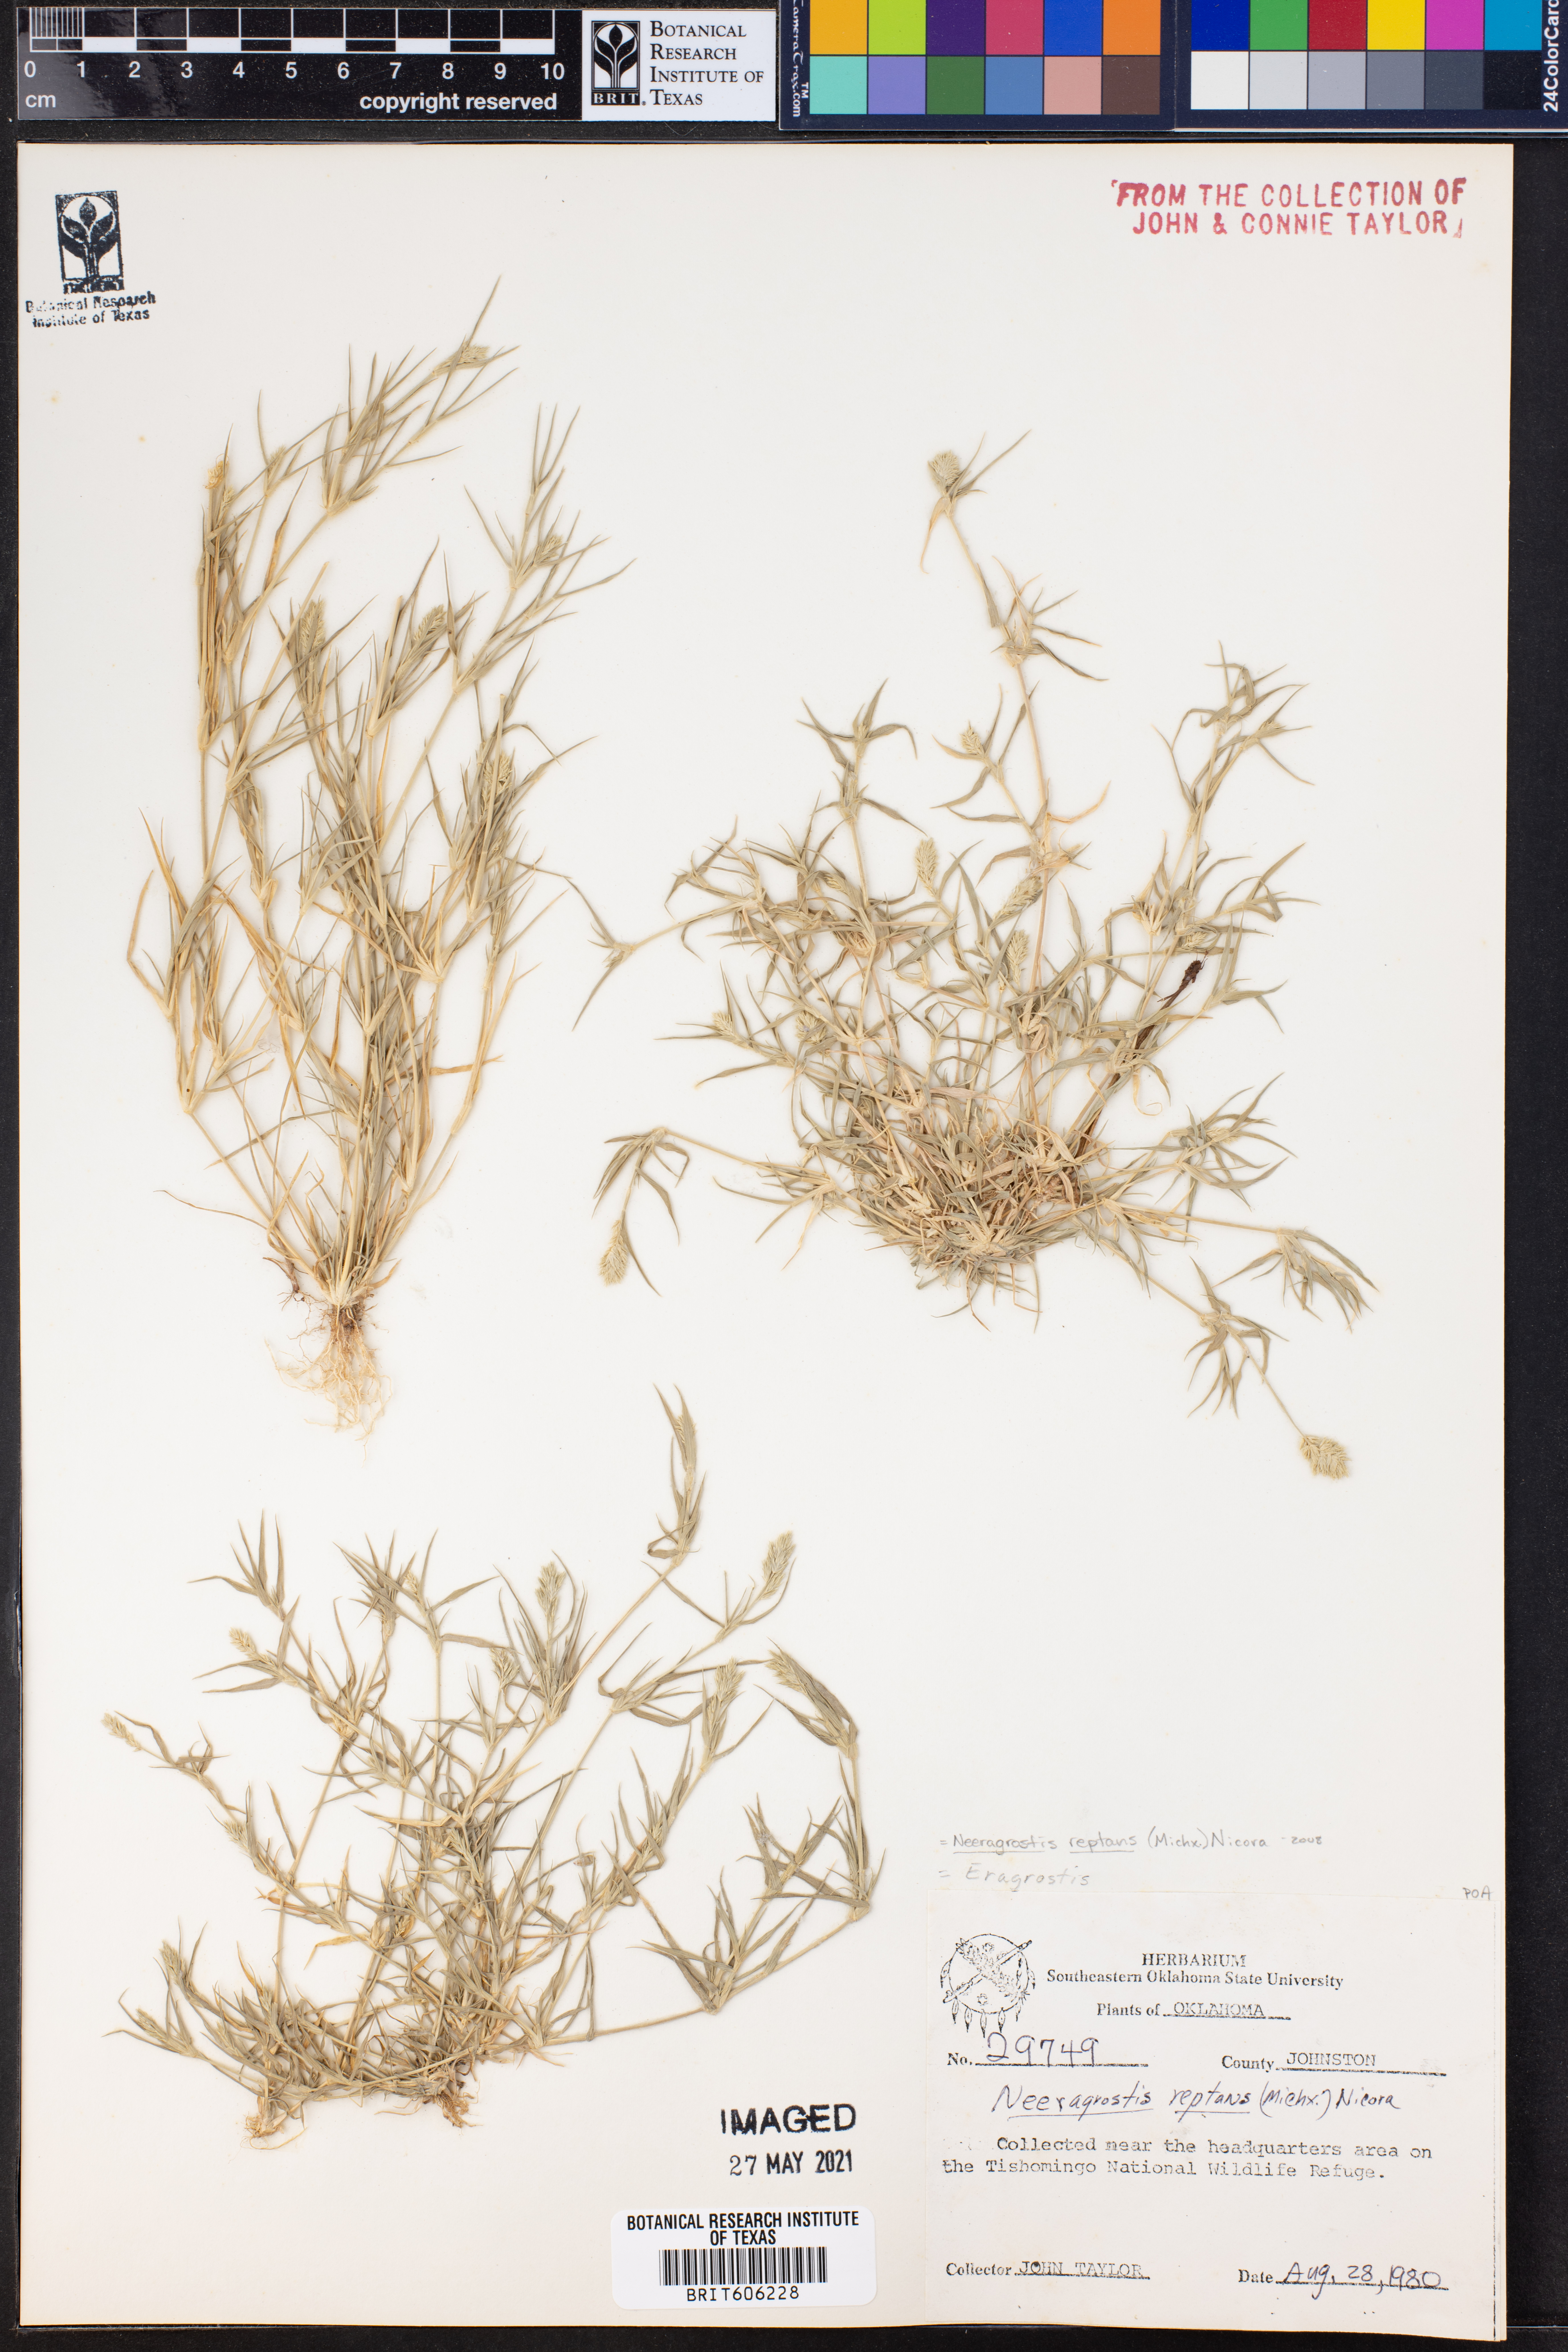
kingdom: Plantae
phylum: Tracheophyta
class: Liliopsida
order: Poales
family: Poaceae
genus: Eragrostis
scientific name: Eragrostis reptans
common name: Creeping love grass
